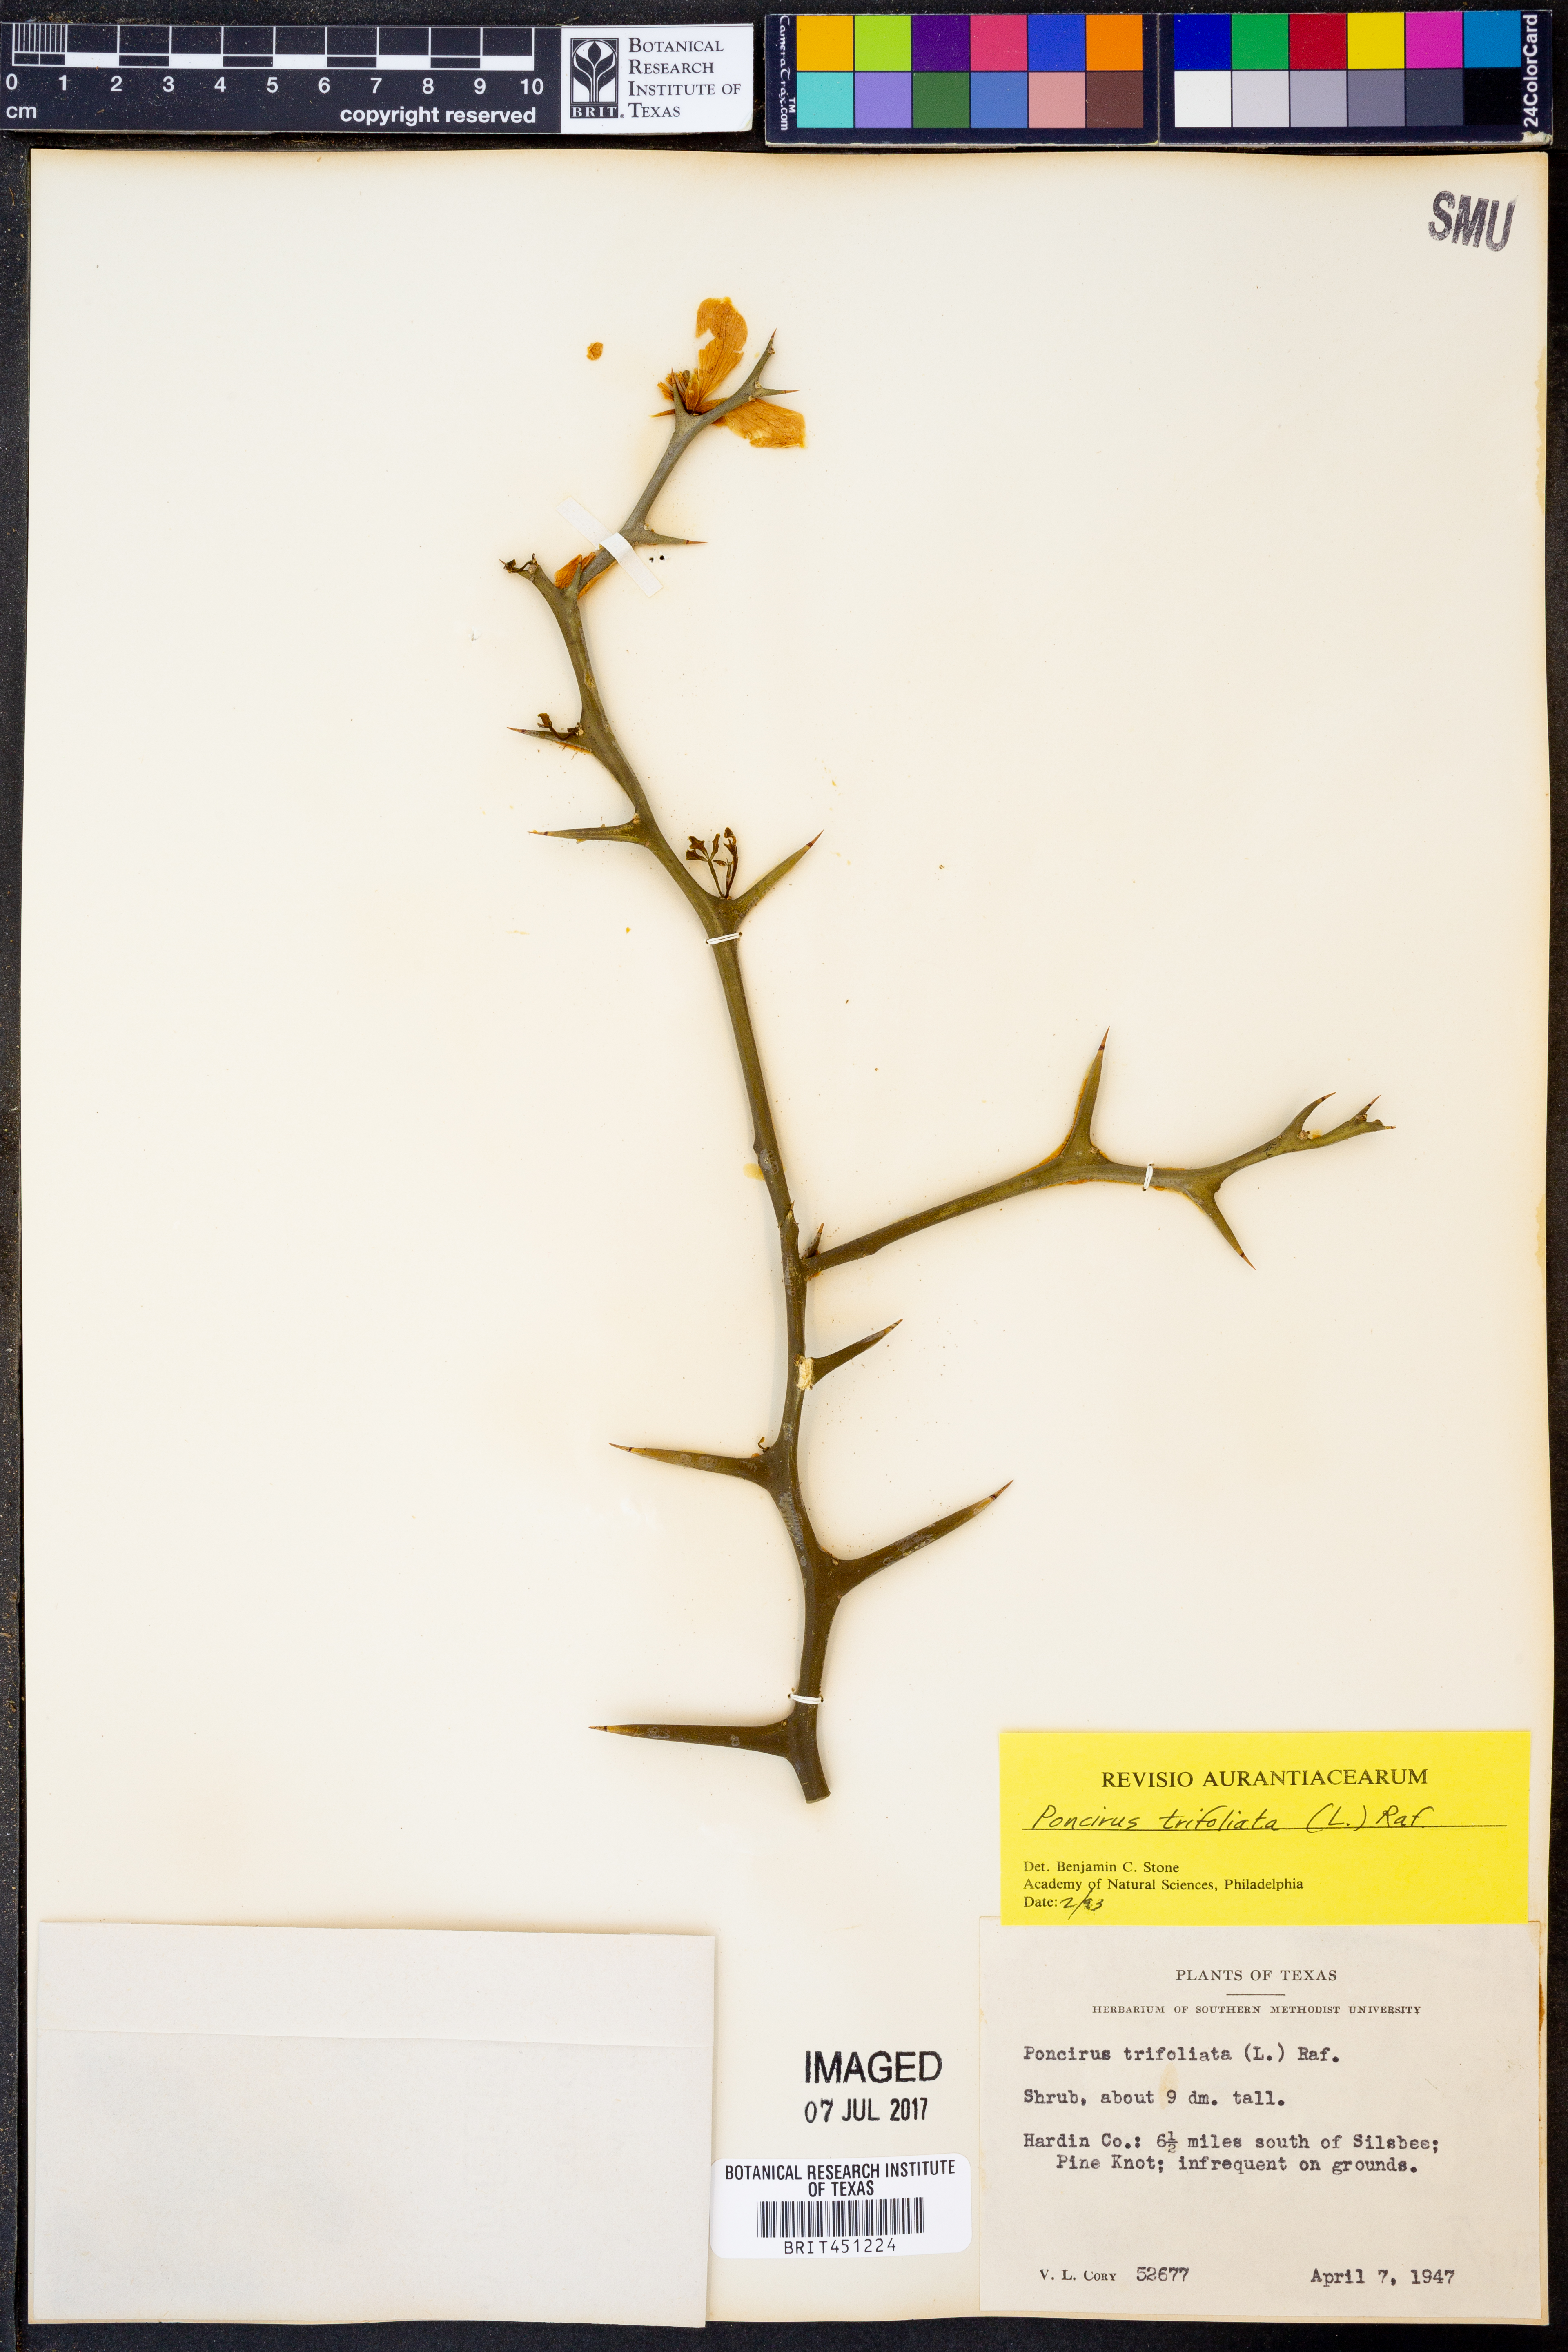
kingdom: Plantae
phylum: Tracheophyta
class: Magnoliopsida
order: Sapindales
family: Rutaceae
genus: Citrus
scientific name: Citrus trifoliata
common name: Japanese bitter-orange
